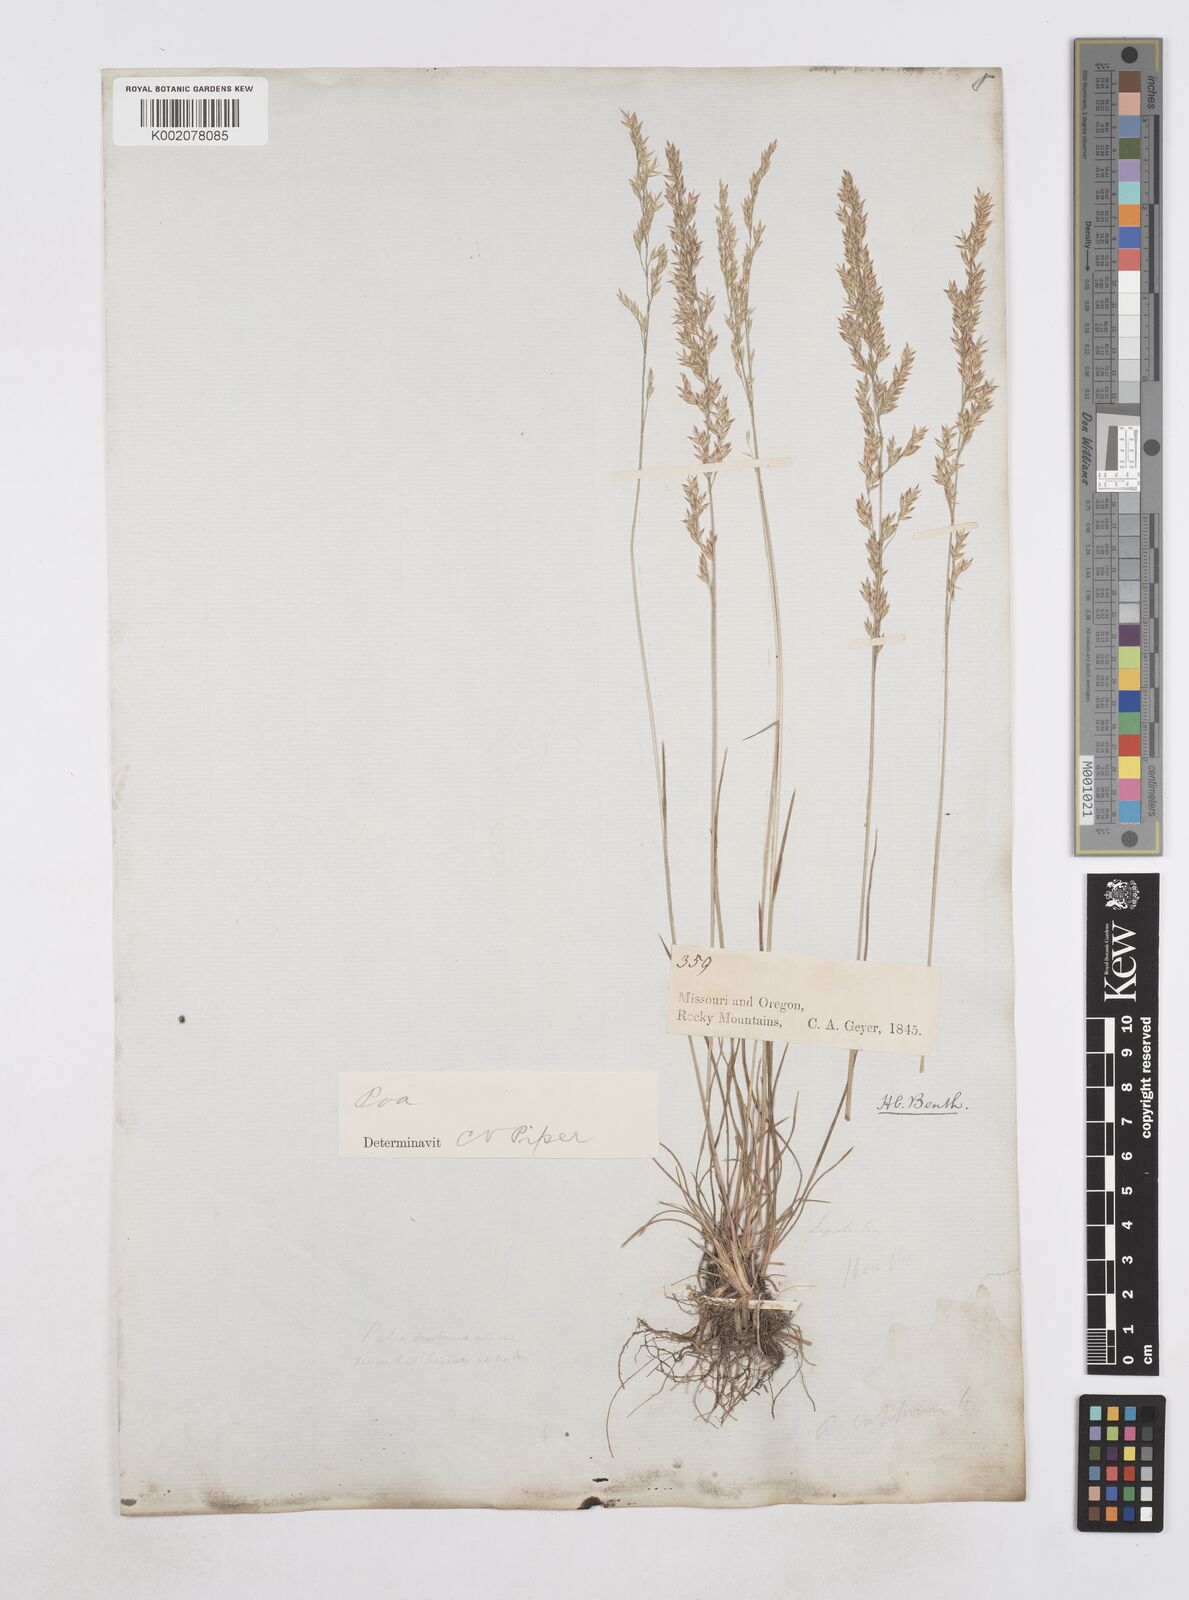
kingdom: Plantae
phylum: Tracheophyta
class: Liliopsida
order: Poales
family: Poaceae
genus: Poa
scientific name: Poa
